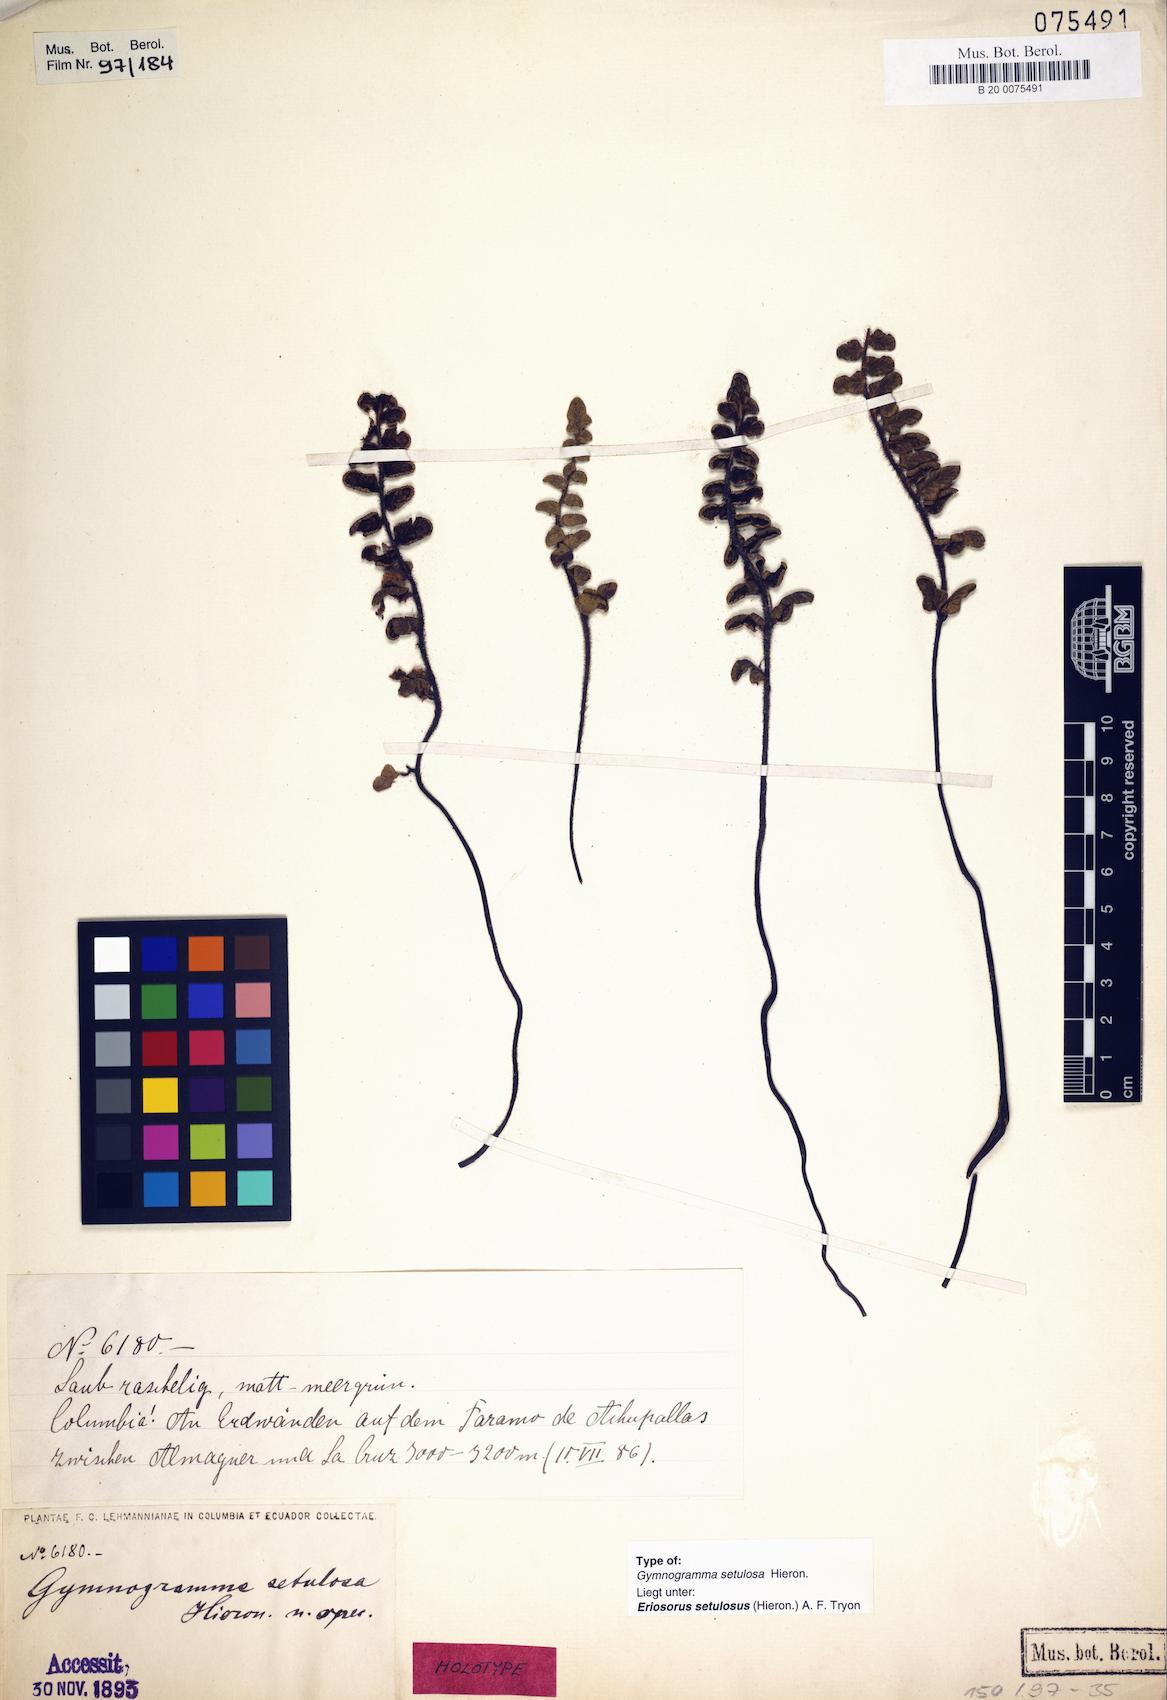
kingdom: Plantae
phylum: Tracheophyta
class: Polypodiopsida
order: Polypodiales
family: Pteridaceae
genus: Jamesonia
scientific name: Jamesonia setulosa
